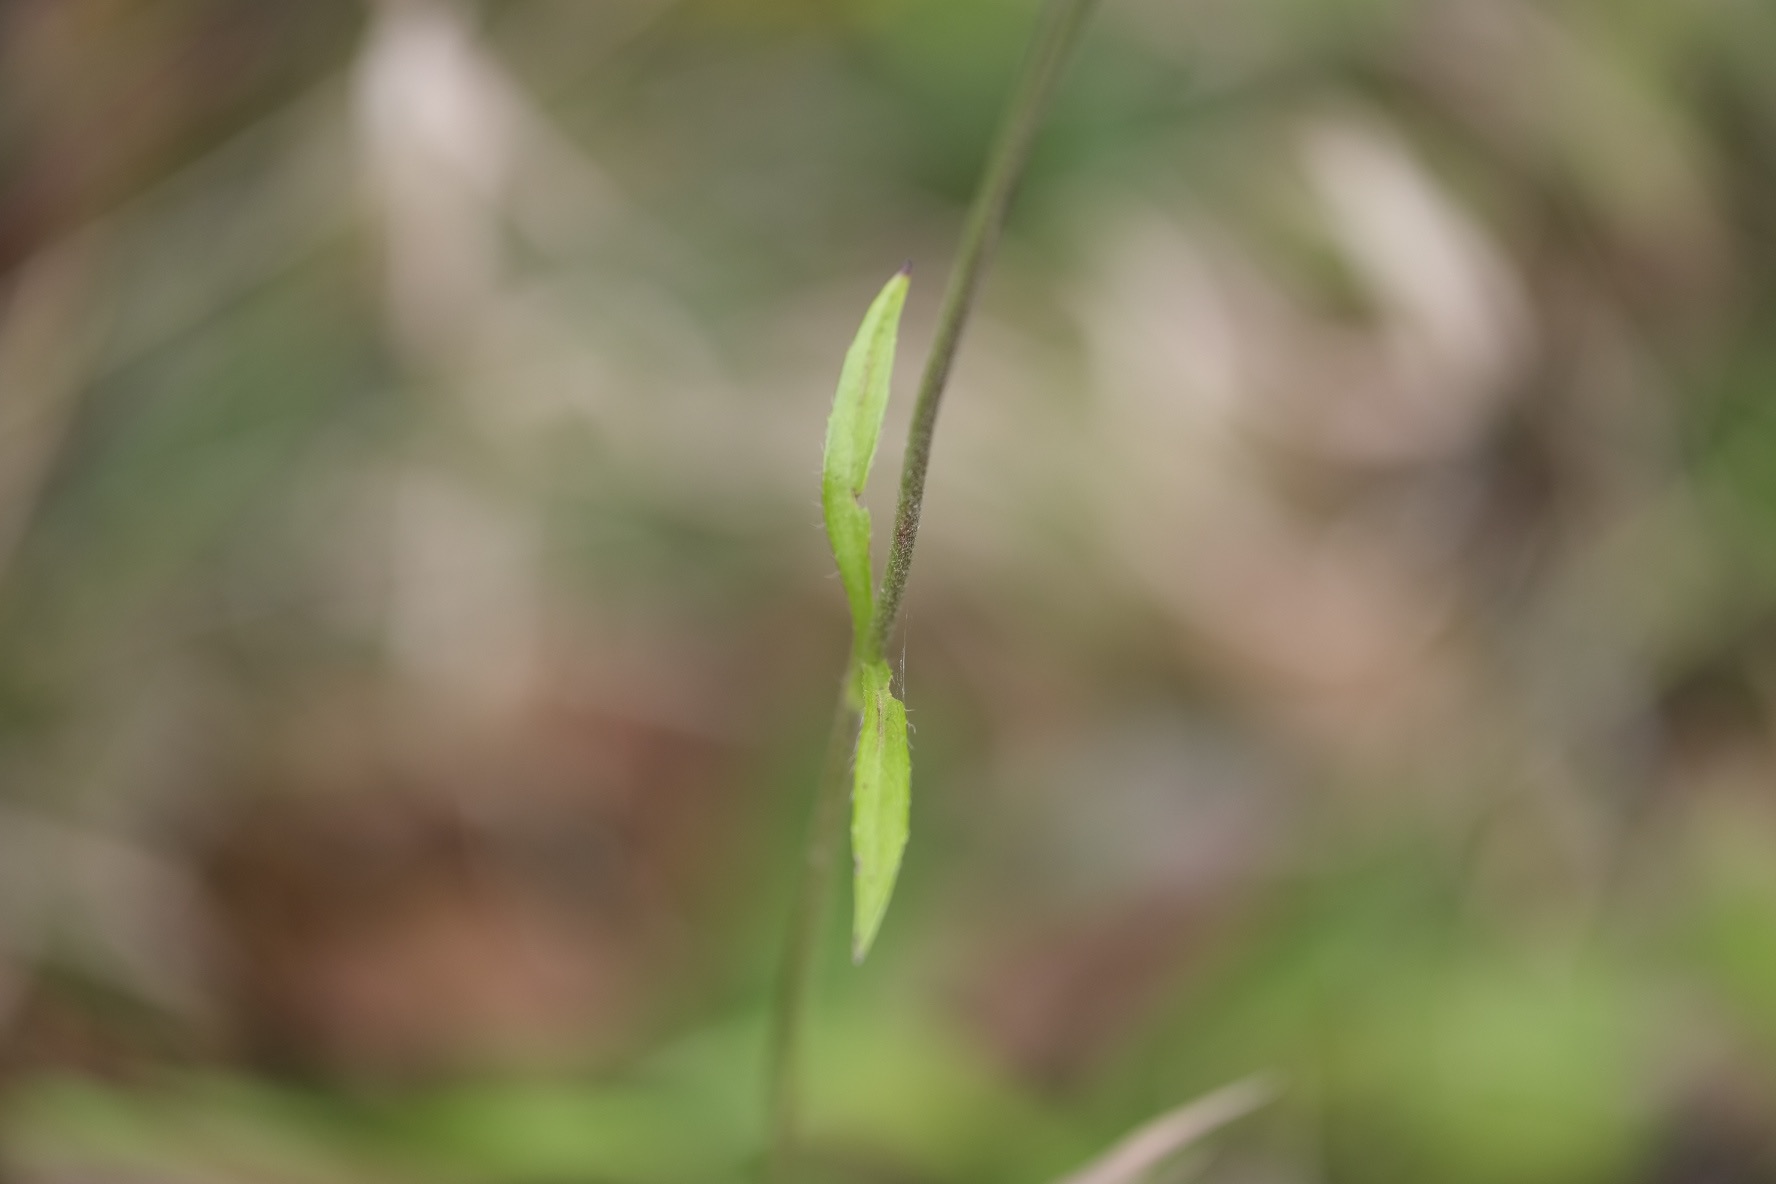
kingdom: Plantae
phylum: Tracheophyta
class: Magnoliopsida
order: Dipsacales
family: Caprifoliaceae
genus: Succisa
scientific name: Succisa pratensis
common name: Djævelsbid
